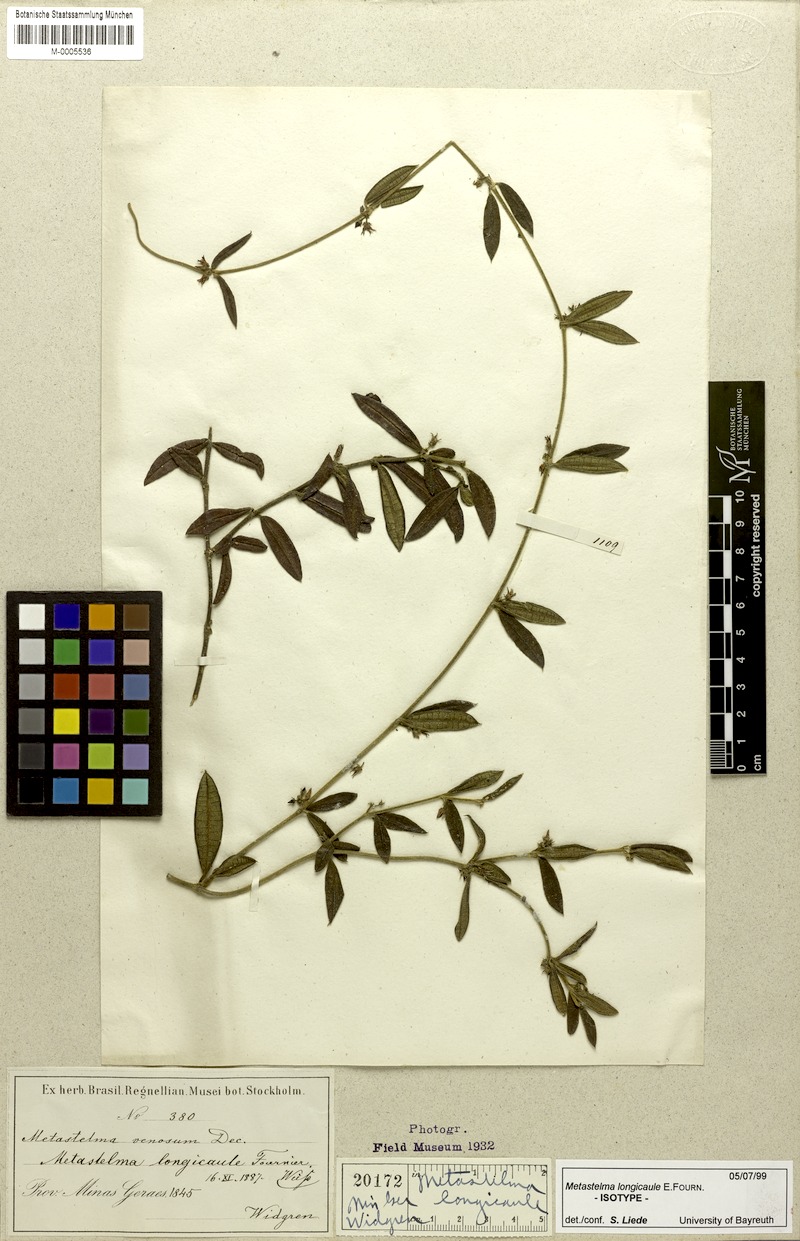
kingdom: Plantae
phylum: Tracheophyta
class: Magnoliopsida
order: Gentianales
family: Apocynaceae
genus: Ditassa
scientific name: Ditassa longicaulis
